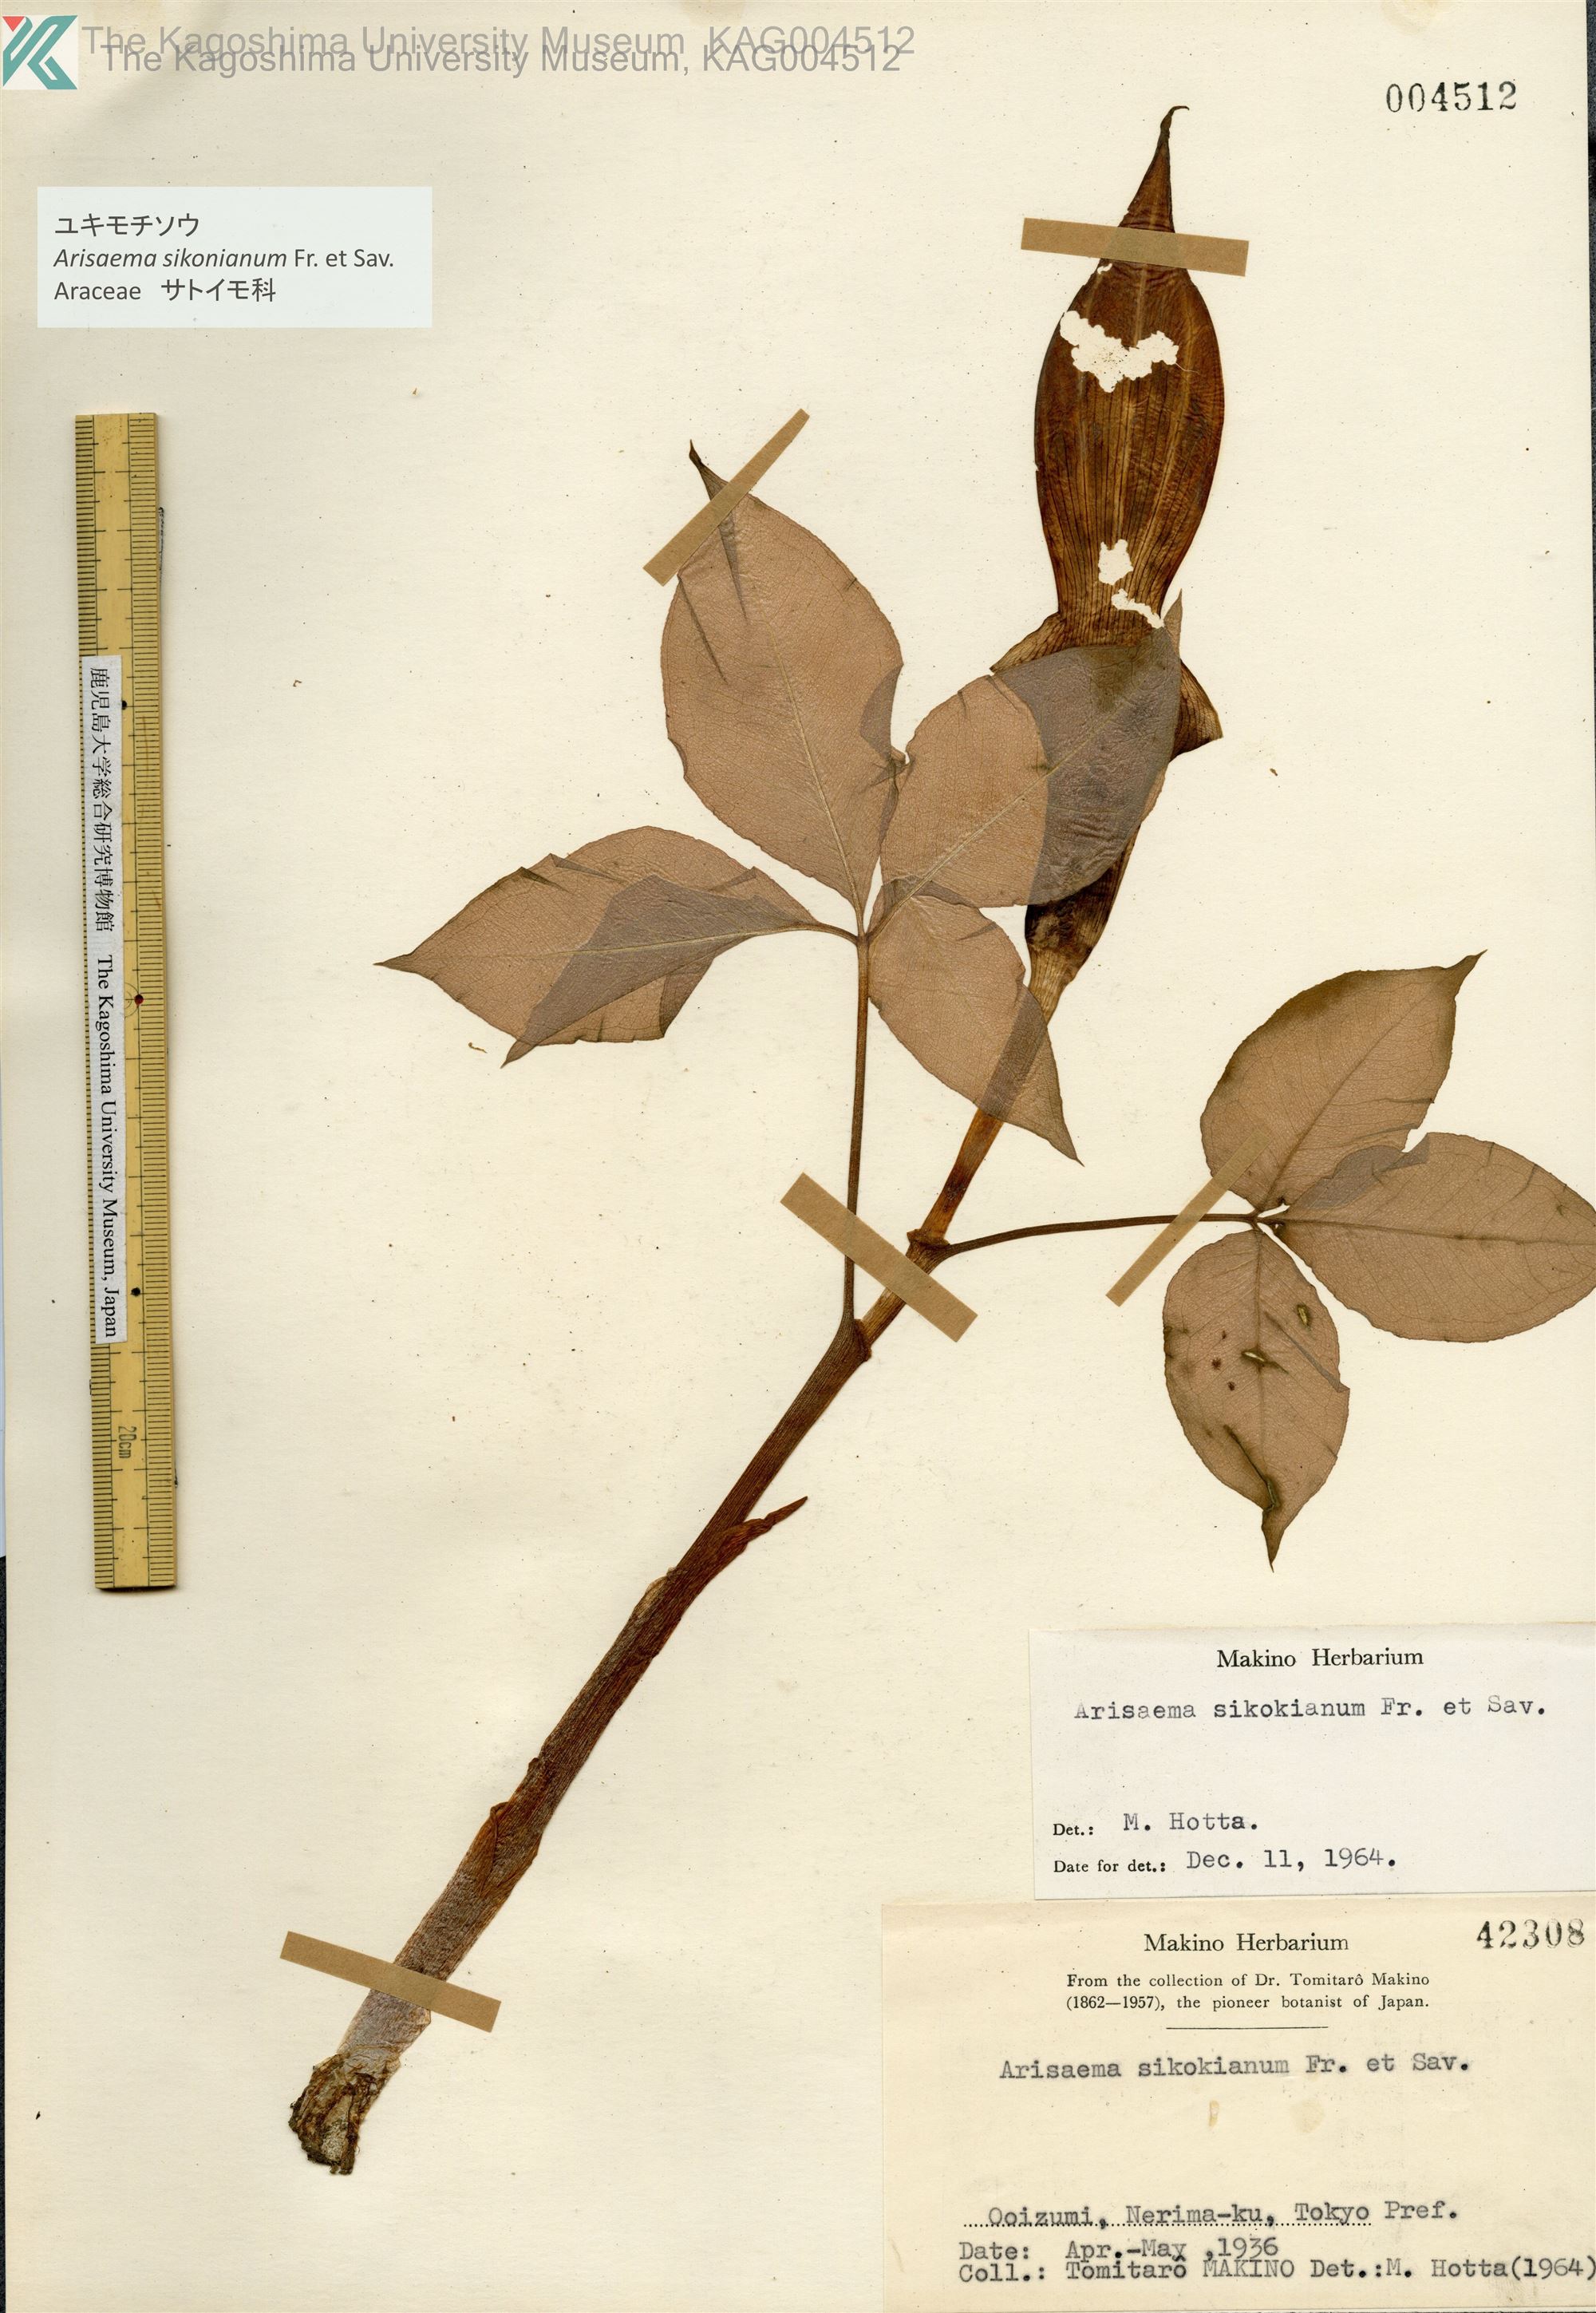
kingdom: Plantae
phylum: Tracheophyta
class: Liliopsida
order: Alismatales
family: Araceae
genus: Arisaema
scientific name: Arisaema sikokianum
